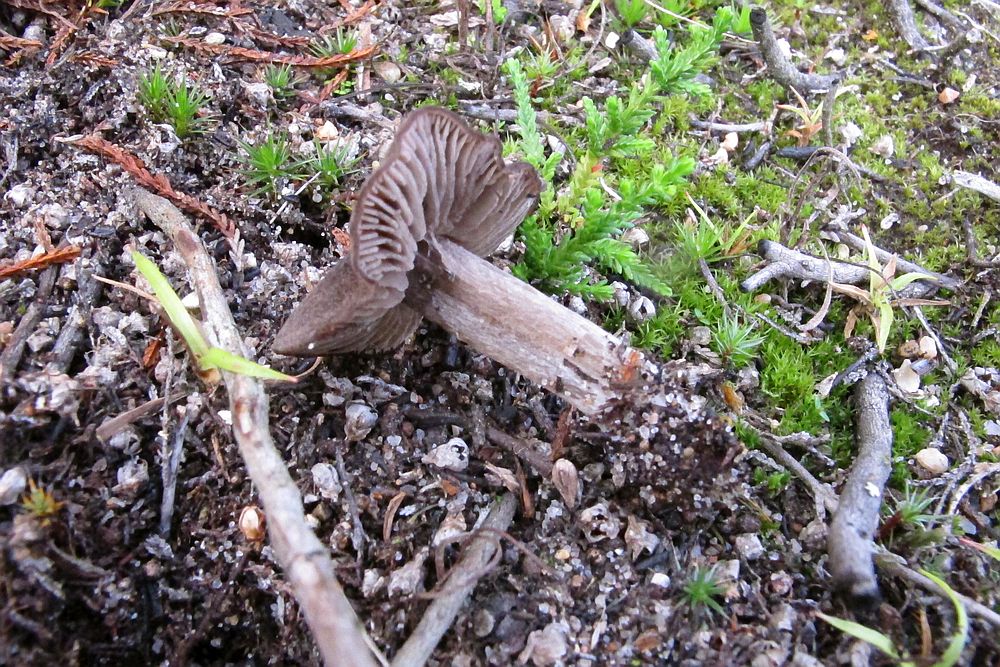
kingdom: Fungi
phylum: Basidiomycota
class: Agaricomycetes
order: Agaricales
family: Entolomataceae
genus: Entoloma
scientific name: Entoloma jubatum
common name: ruskællet rødblad
